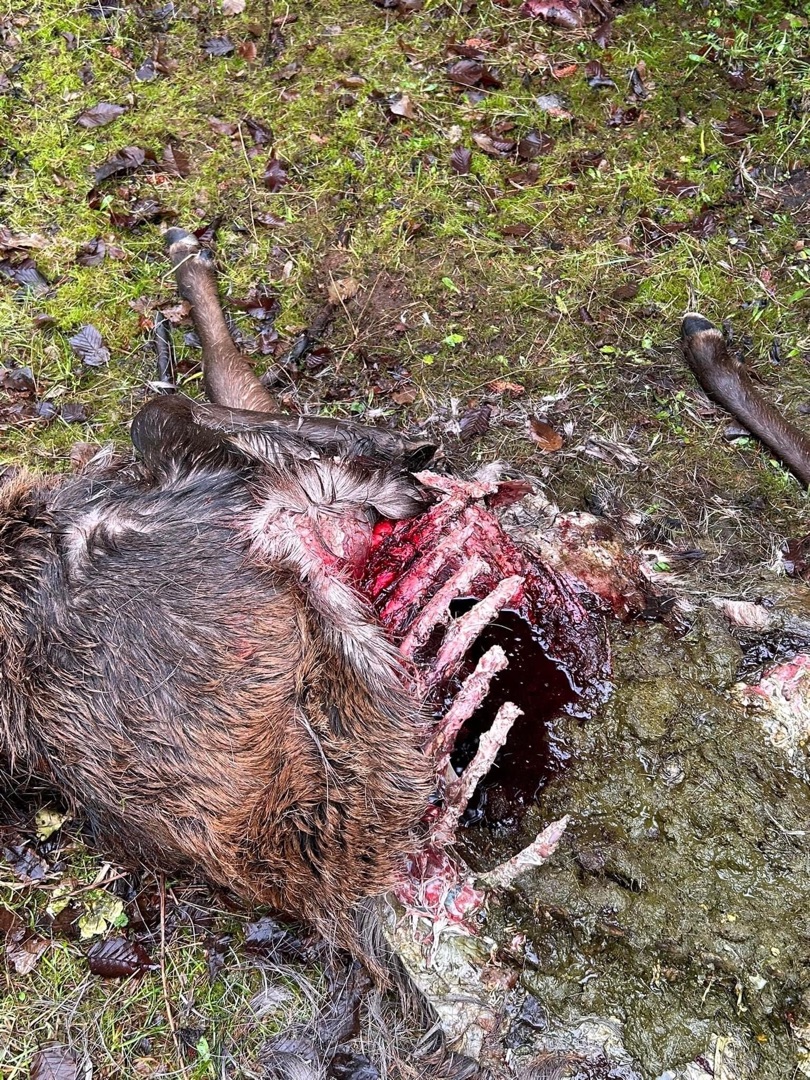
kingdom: Animalia
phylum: Chordata
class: Mammalia
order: Artiodactyla
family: Cervidae
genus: Cervus
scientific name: Cervus elaphus
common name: Krondyr
